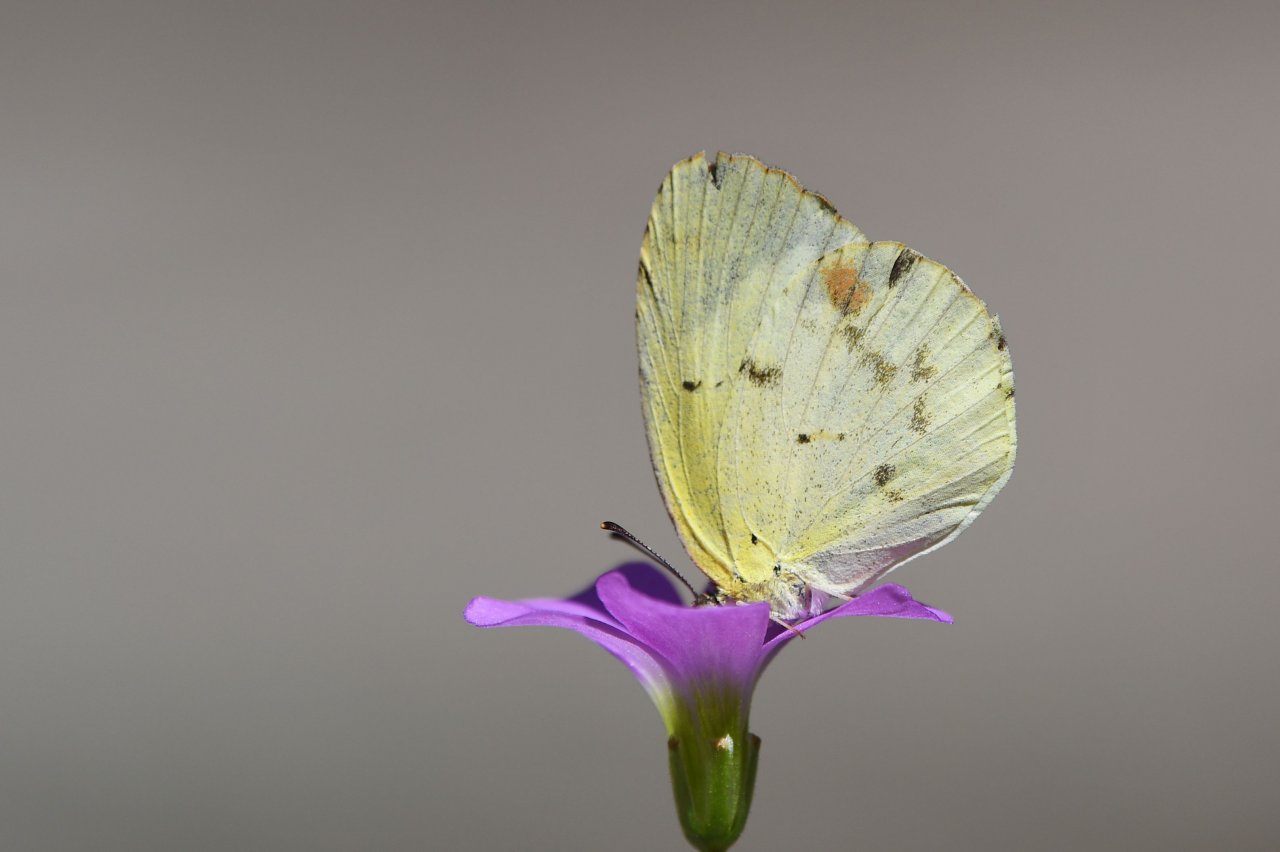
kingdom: Animalia
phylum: Arthropoda
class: Insecta
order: Lepidoptera
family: Pieridae
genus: Pyrisitia
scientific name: Pyrisitia lisa
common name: Little Yellow
